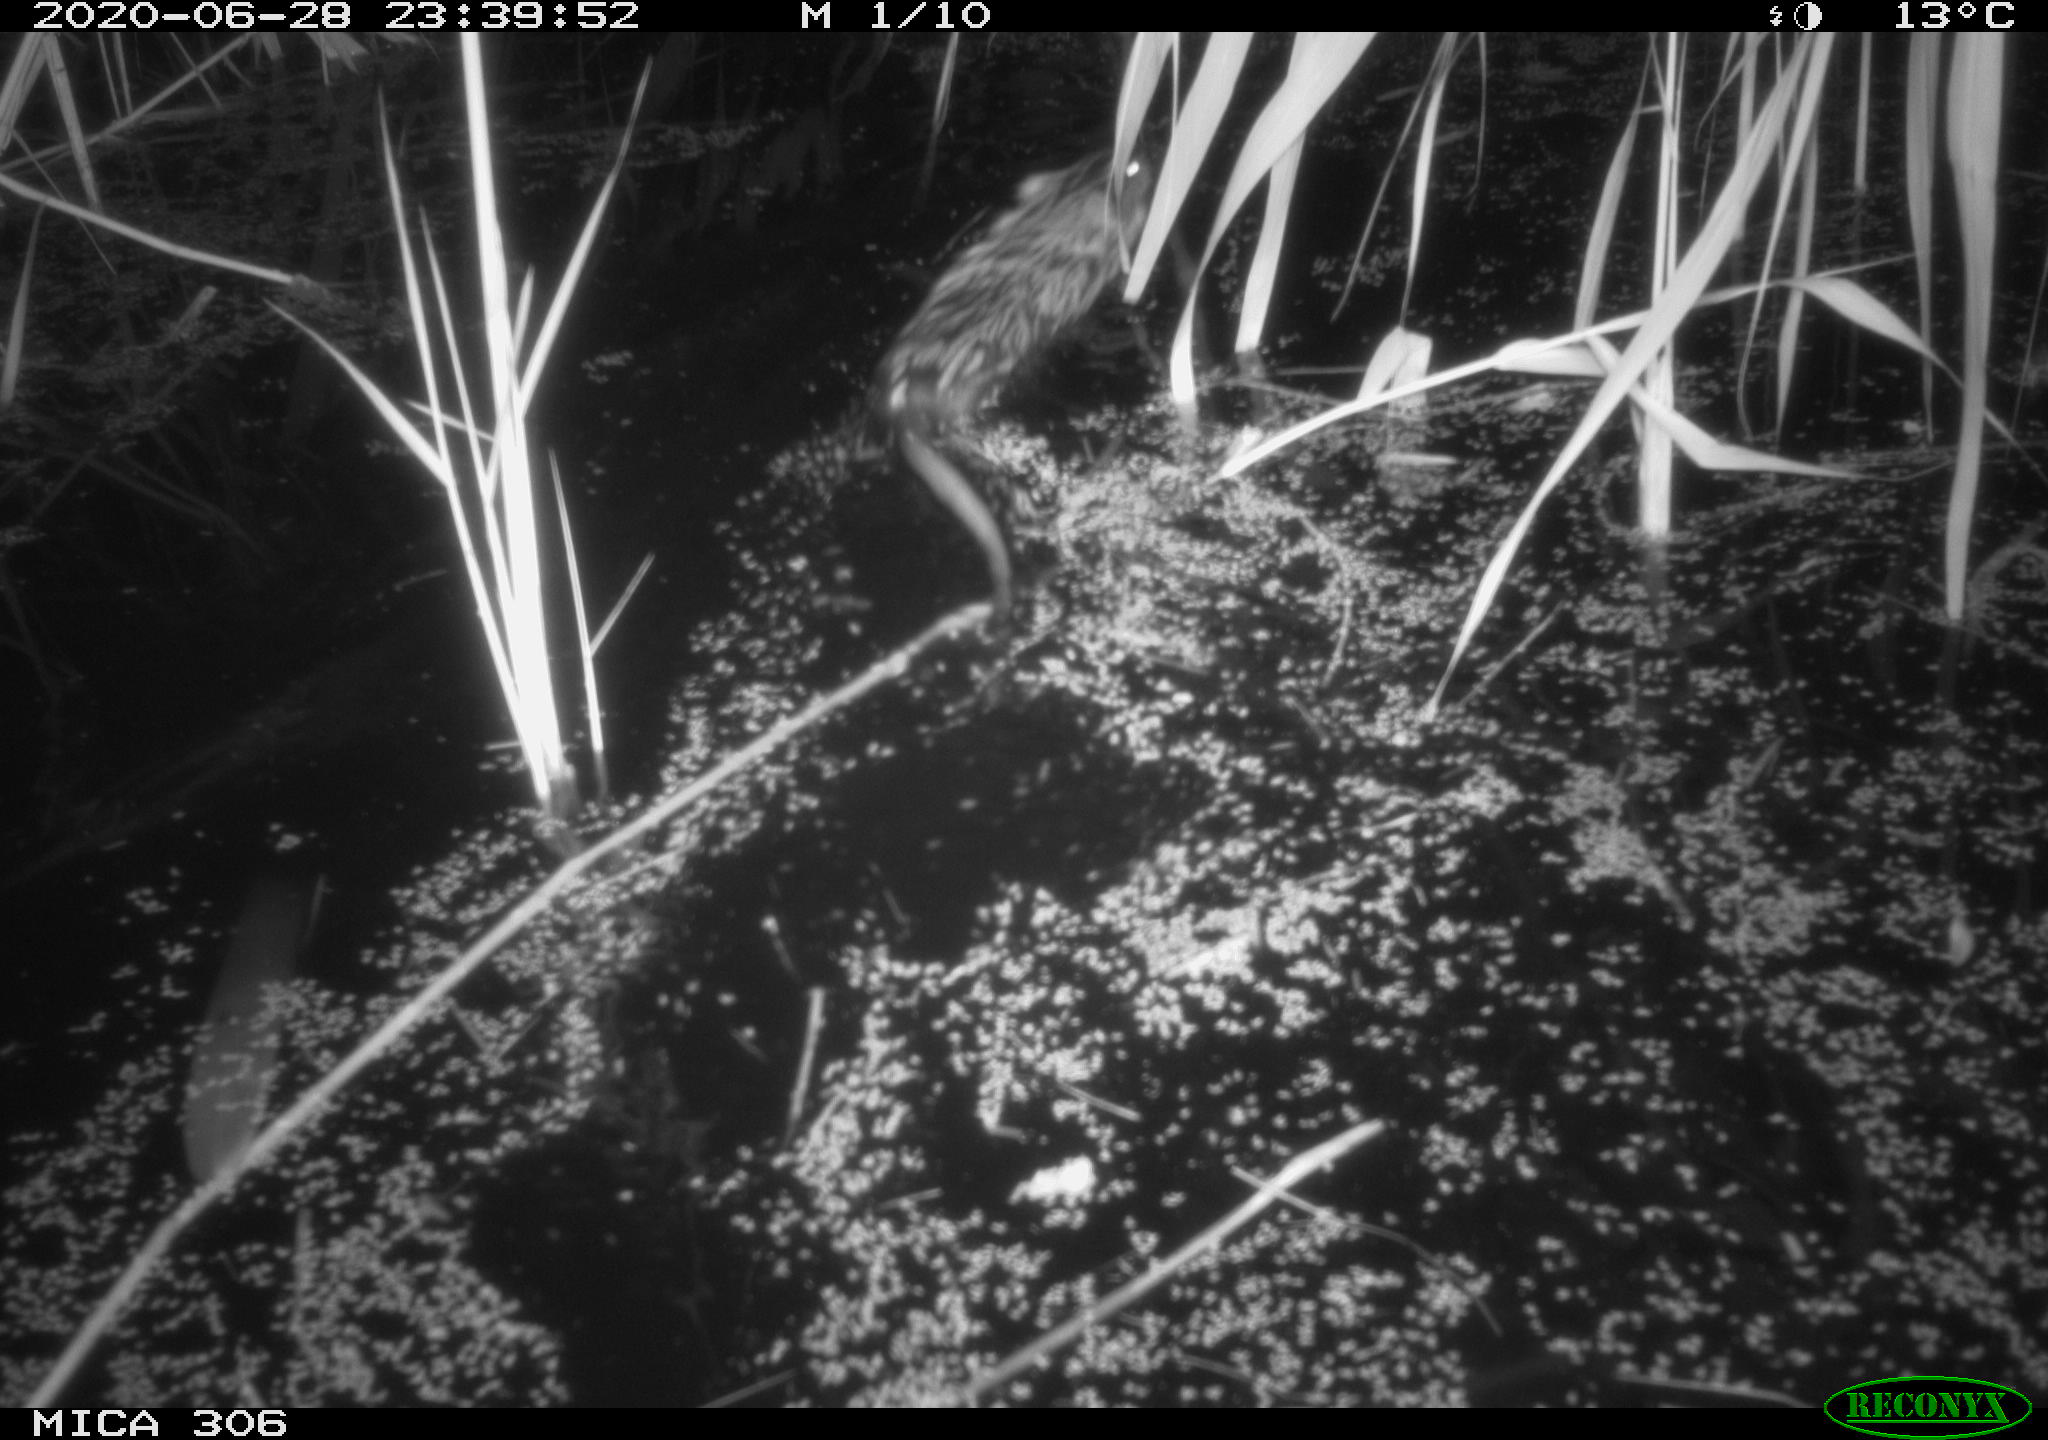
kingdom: Animalia
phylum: Chordata
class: Mammalia
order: Rodentia
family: Cricetidae
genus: Ondatra
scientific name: Ondatra zibethicus
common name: Muskrat
